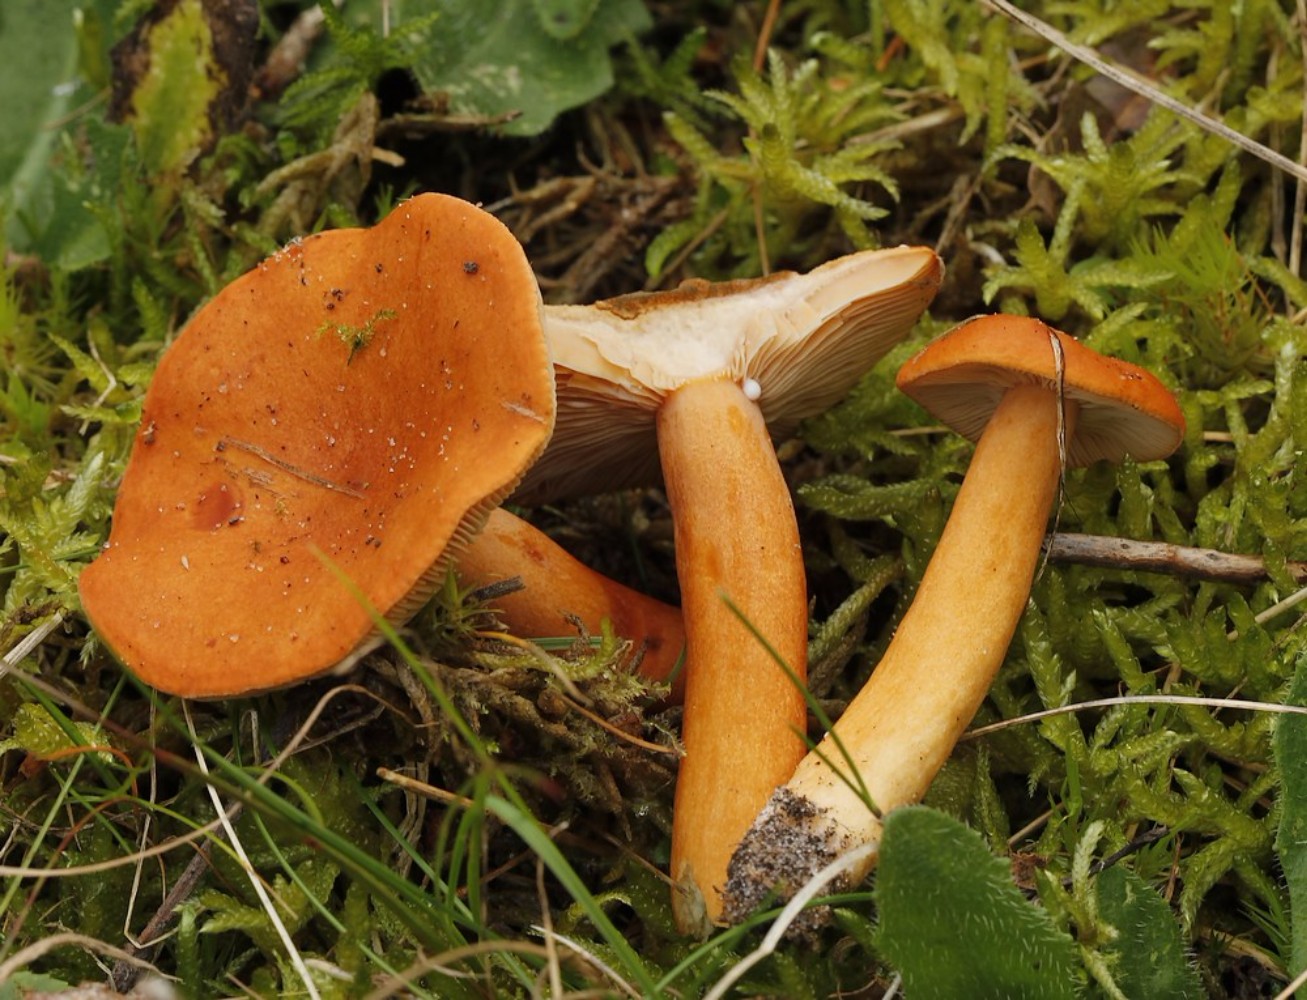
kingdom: Fungi
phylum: Basidiomycota
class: Agaricomycetes
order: Russulales
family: Russulaceae
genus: Lactarius
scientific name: Lactarius aurantiacus
